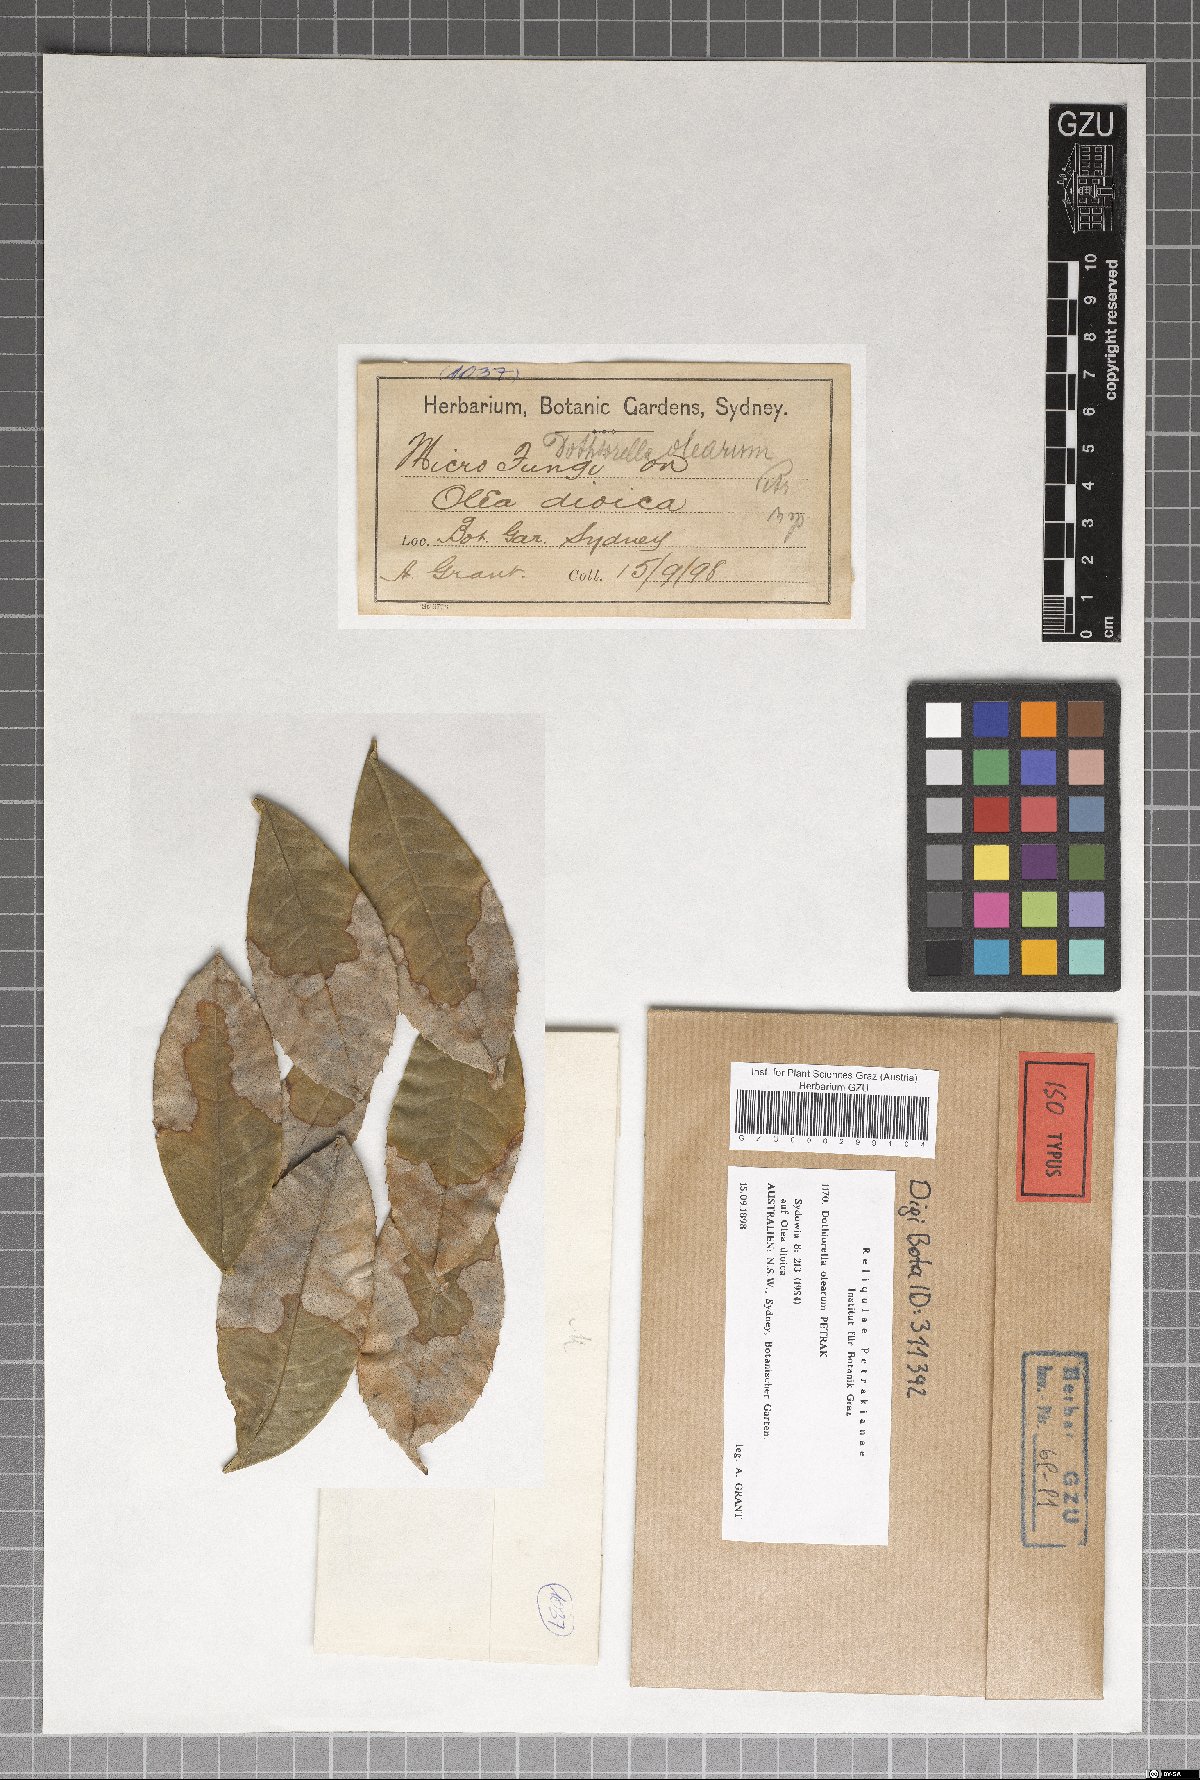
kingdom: Fungi
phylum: Ascomycota
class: Dothideomycetes
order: Botryosphaeriales
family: Botryosphaeriaceae
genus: Dothiorella
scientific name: Dothiorella olearum
